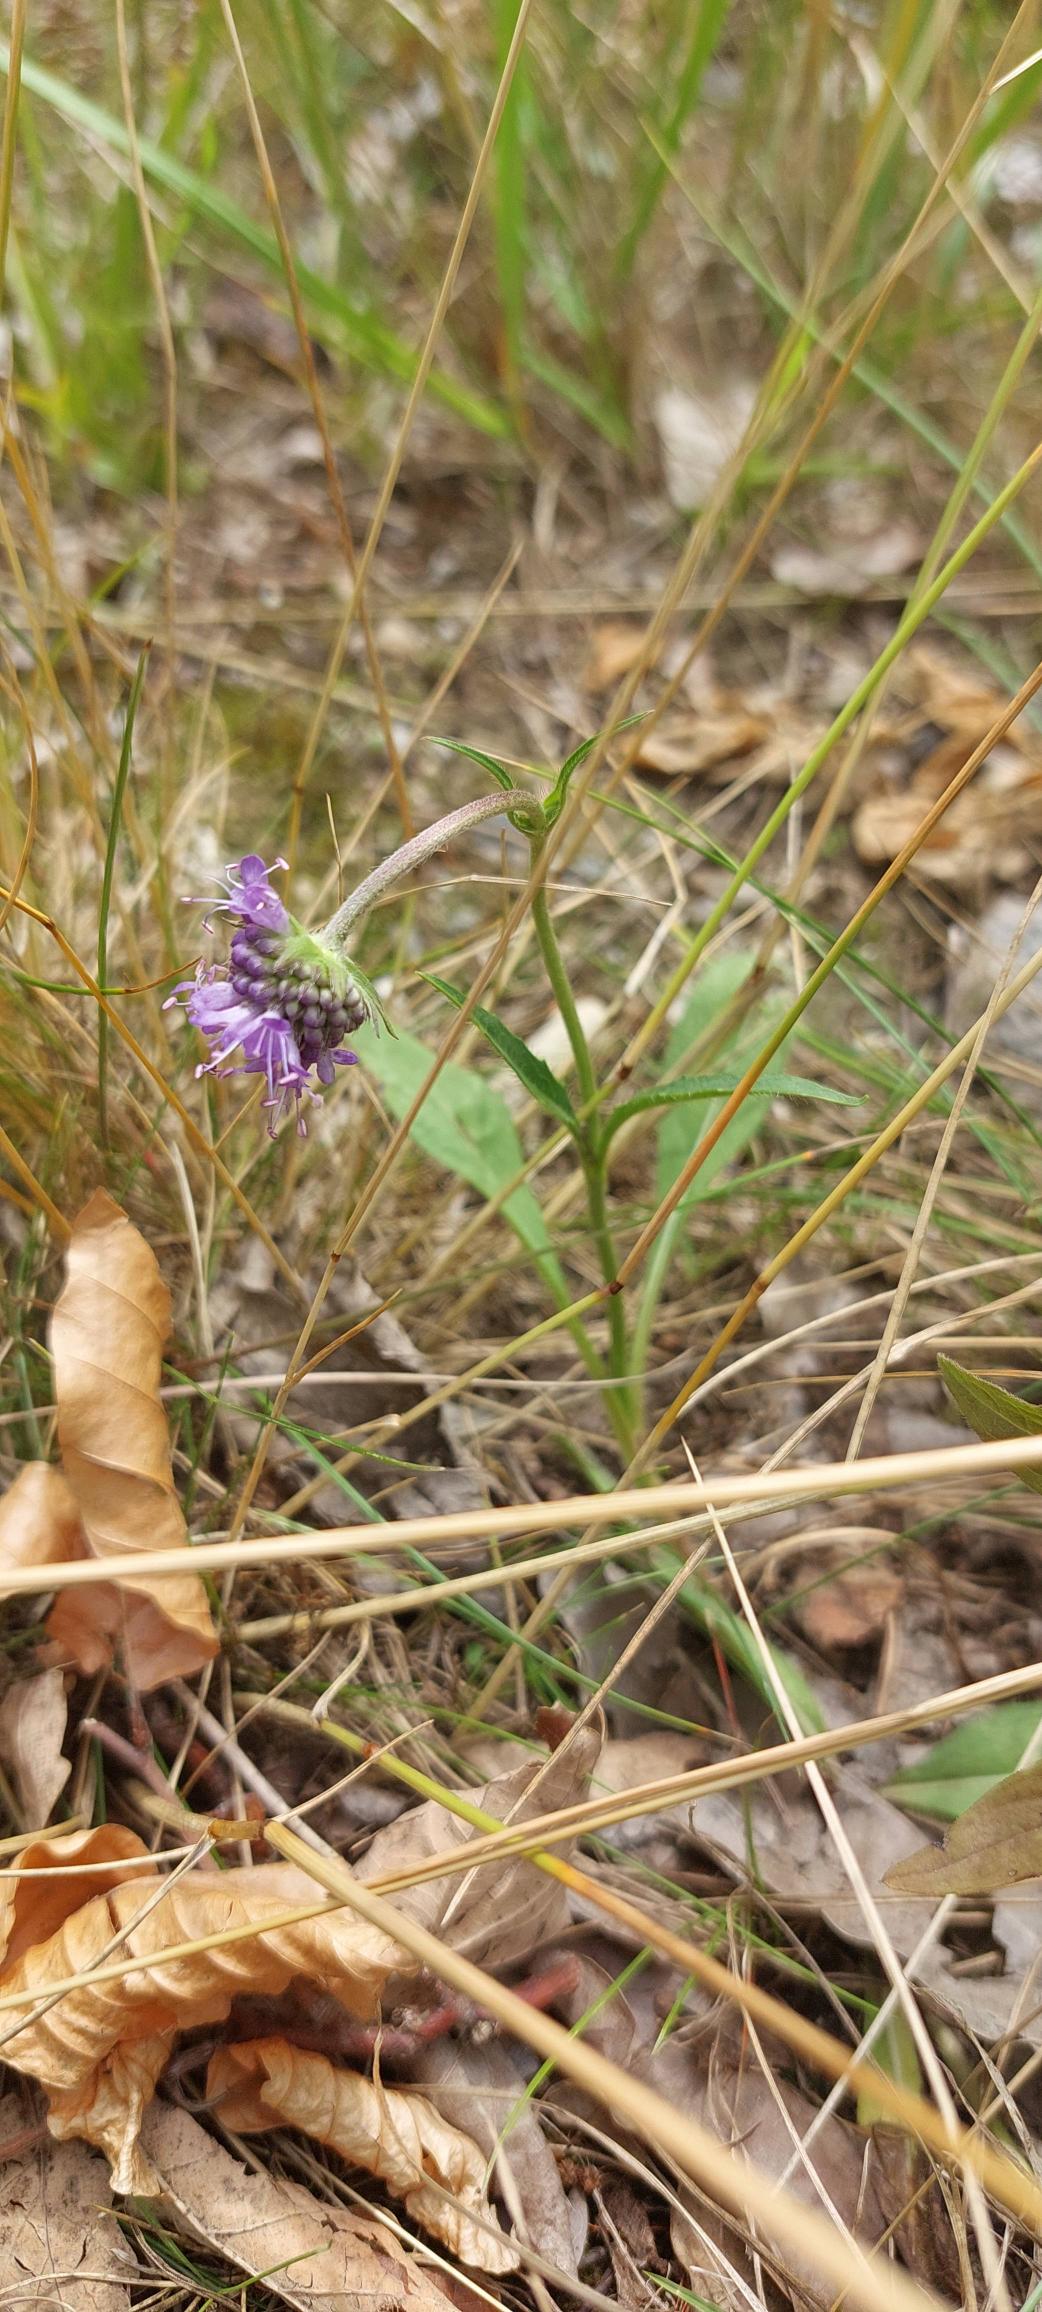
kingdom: Plantae
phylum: Tracheophyta
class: Magnoliopsida
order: Dipsacales
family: Caprifoliaceae
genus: Succisa
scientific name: Succisa pratensis
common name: Djævelsbid
